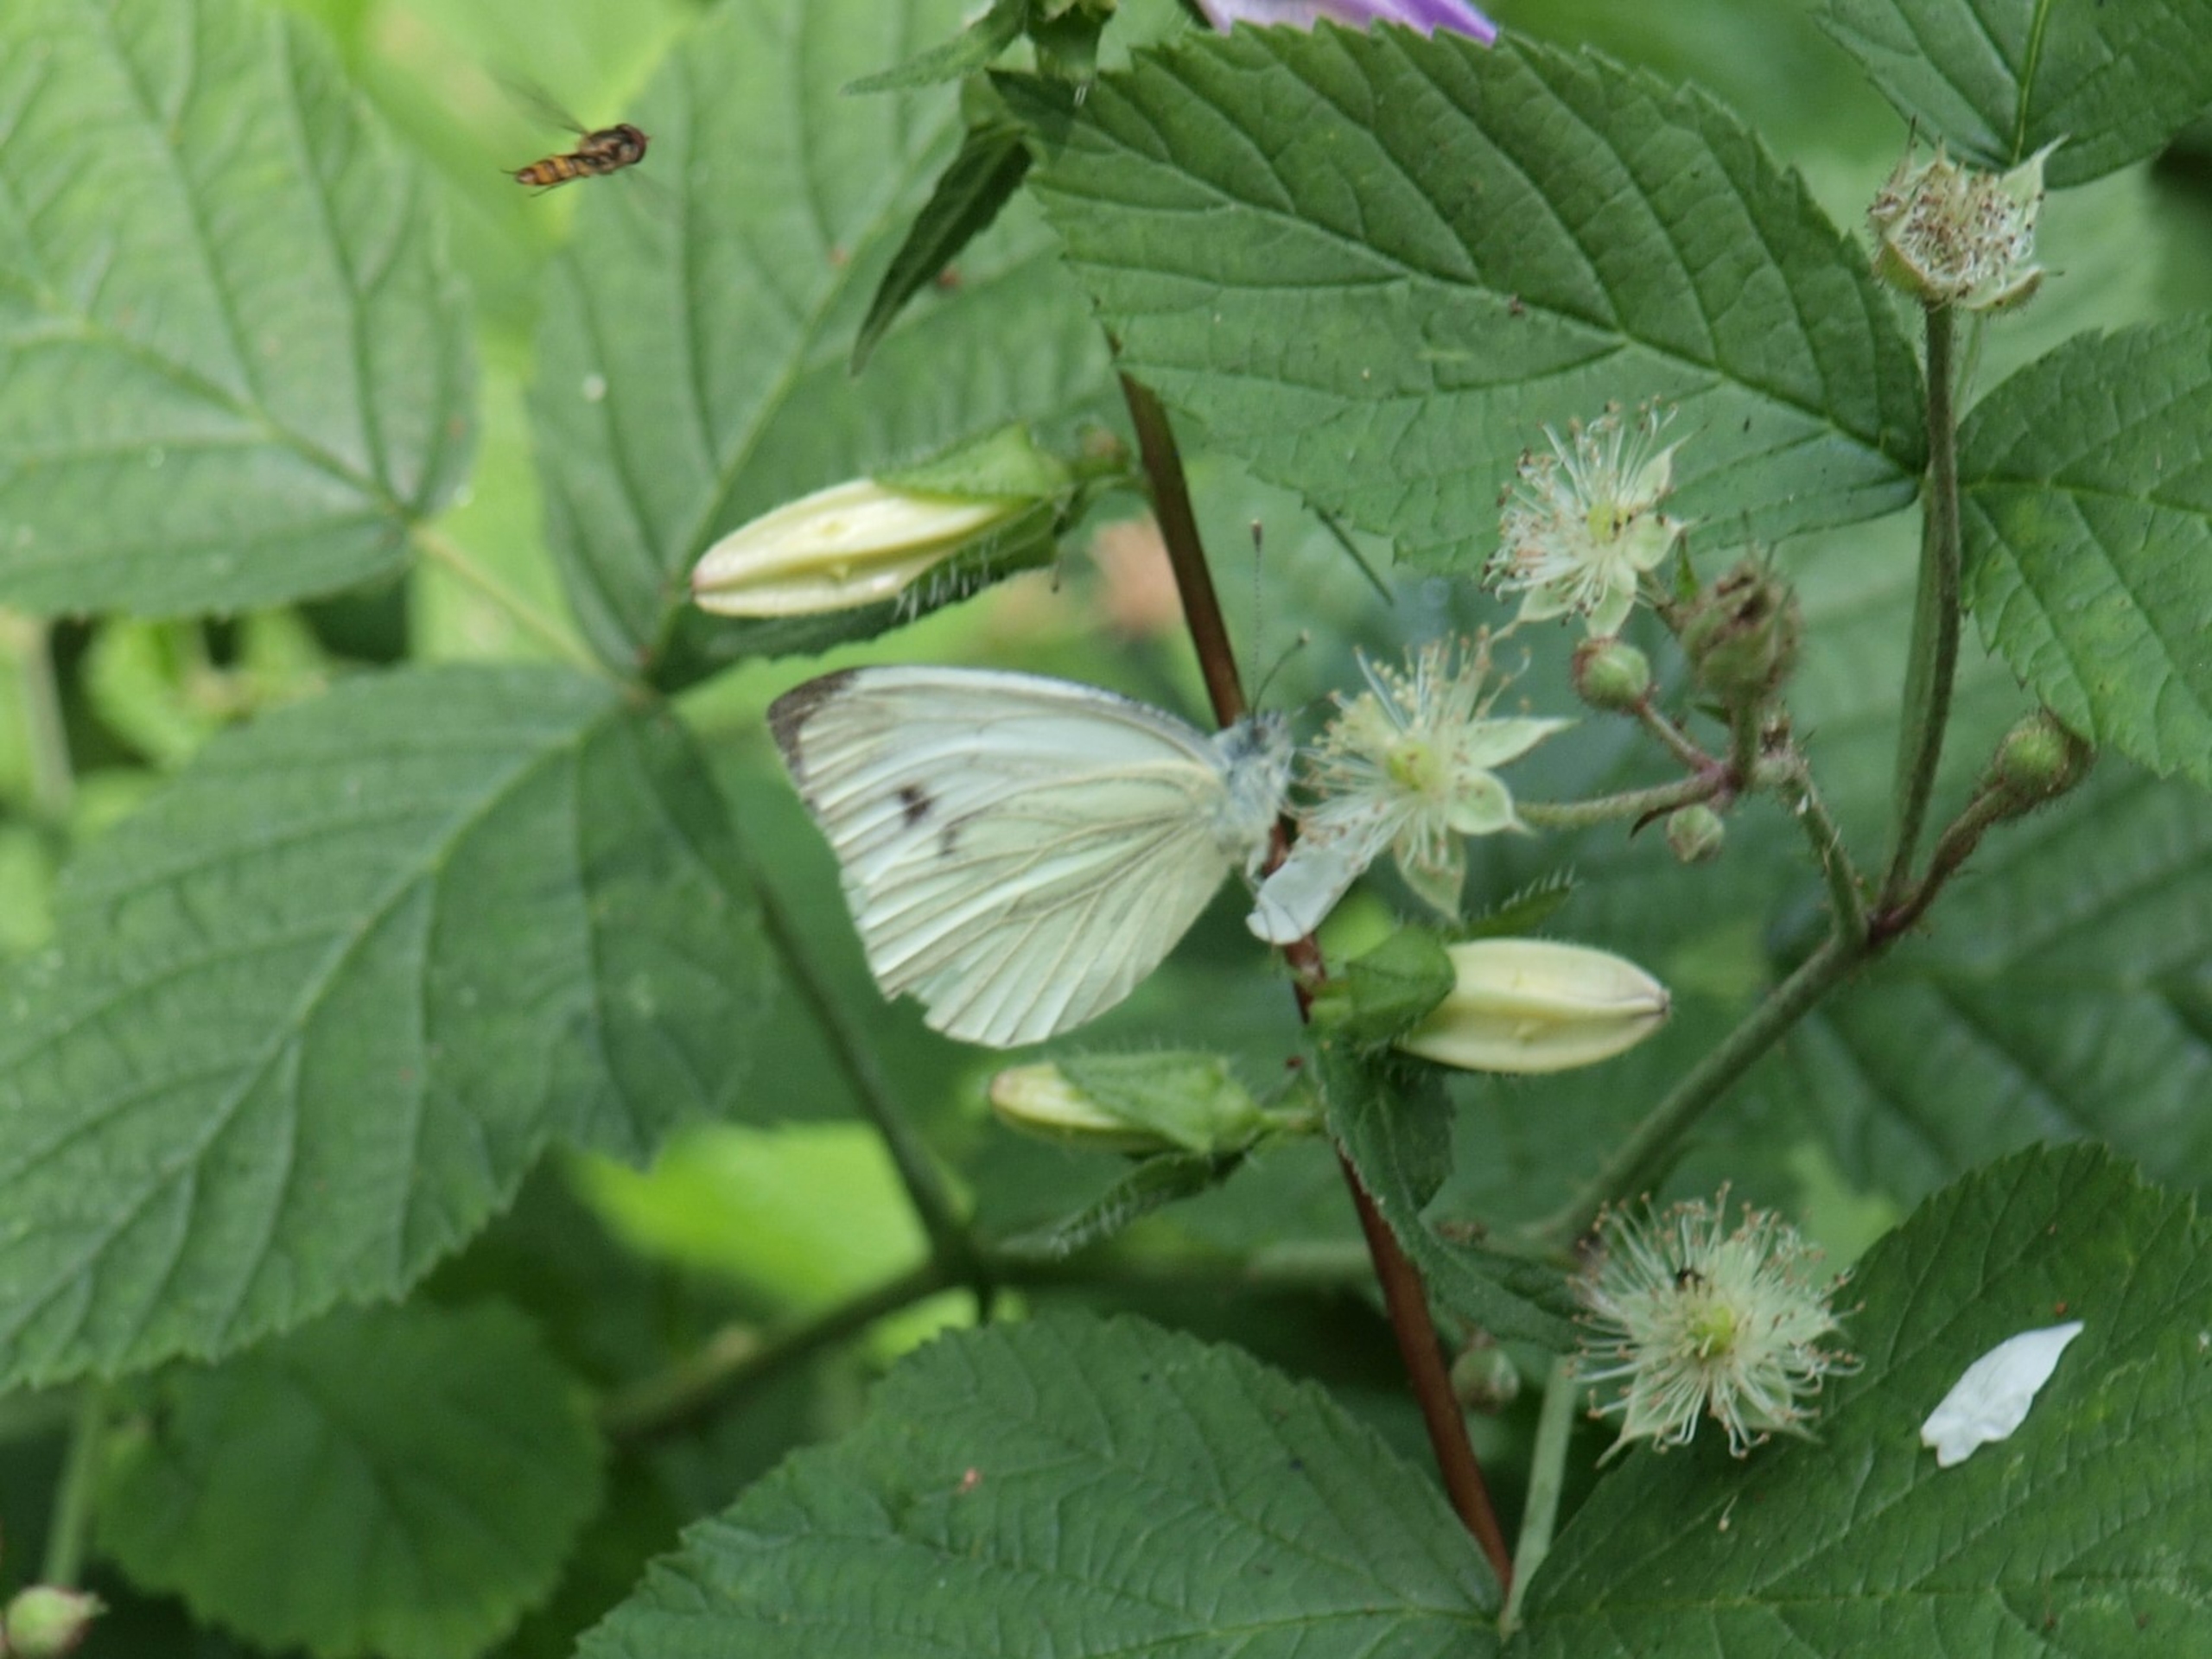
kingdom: Animalia
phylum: Arthropoda
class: Insecta
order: Lepidoptera
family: Pieridae
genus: Pieris
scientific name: Pieris napi
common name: Grønåret kålsommerfugl
